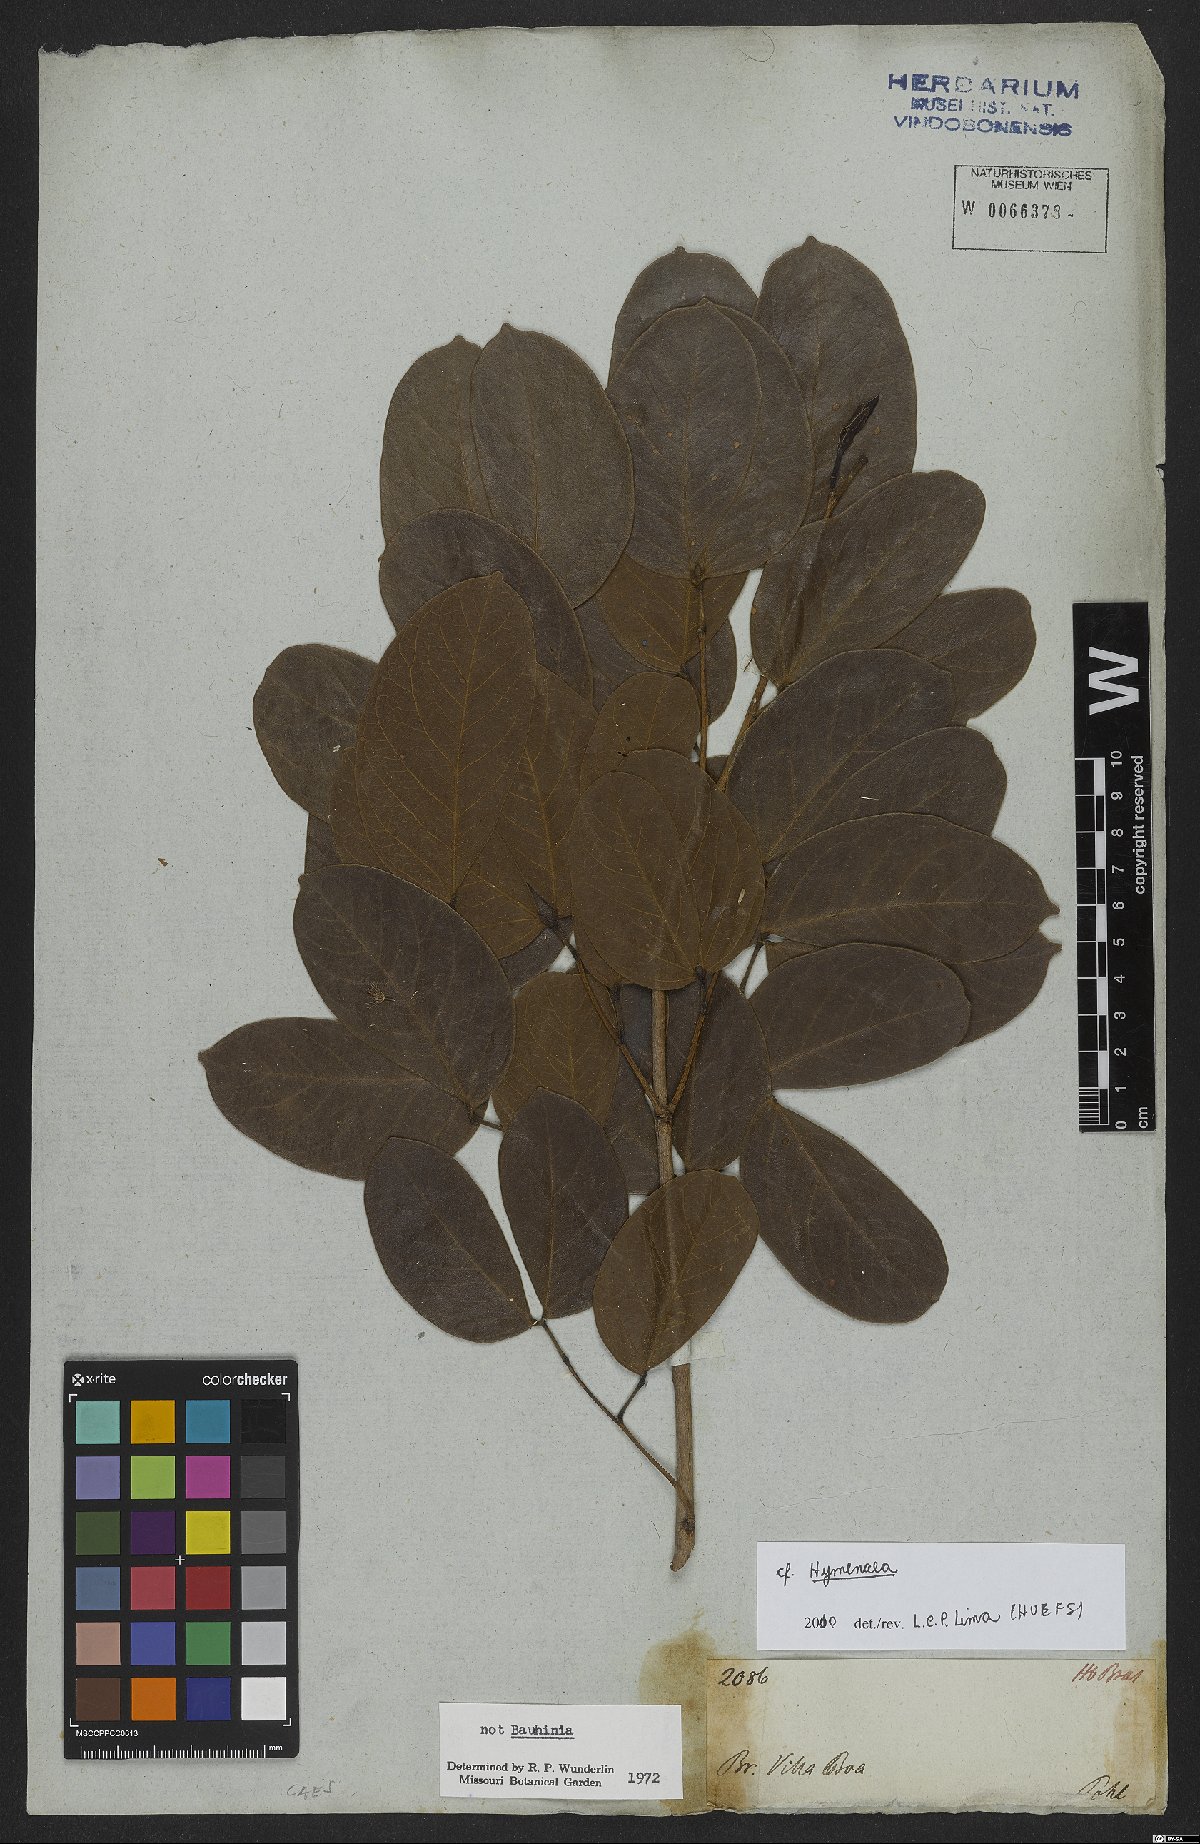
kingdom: Plantae
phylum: Tracheophyta
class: Magnoliopsida
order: Fabales
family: Fabaceae
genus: Hymenaea
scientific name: Hymenaea
